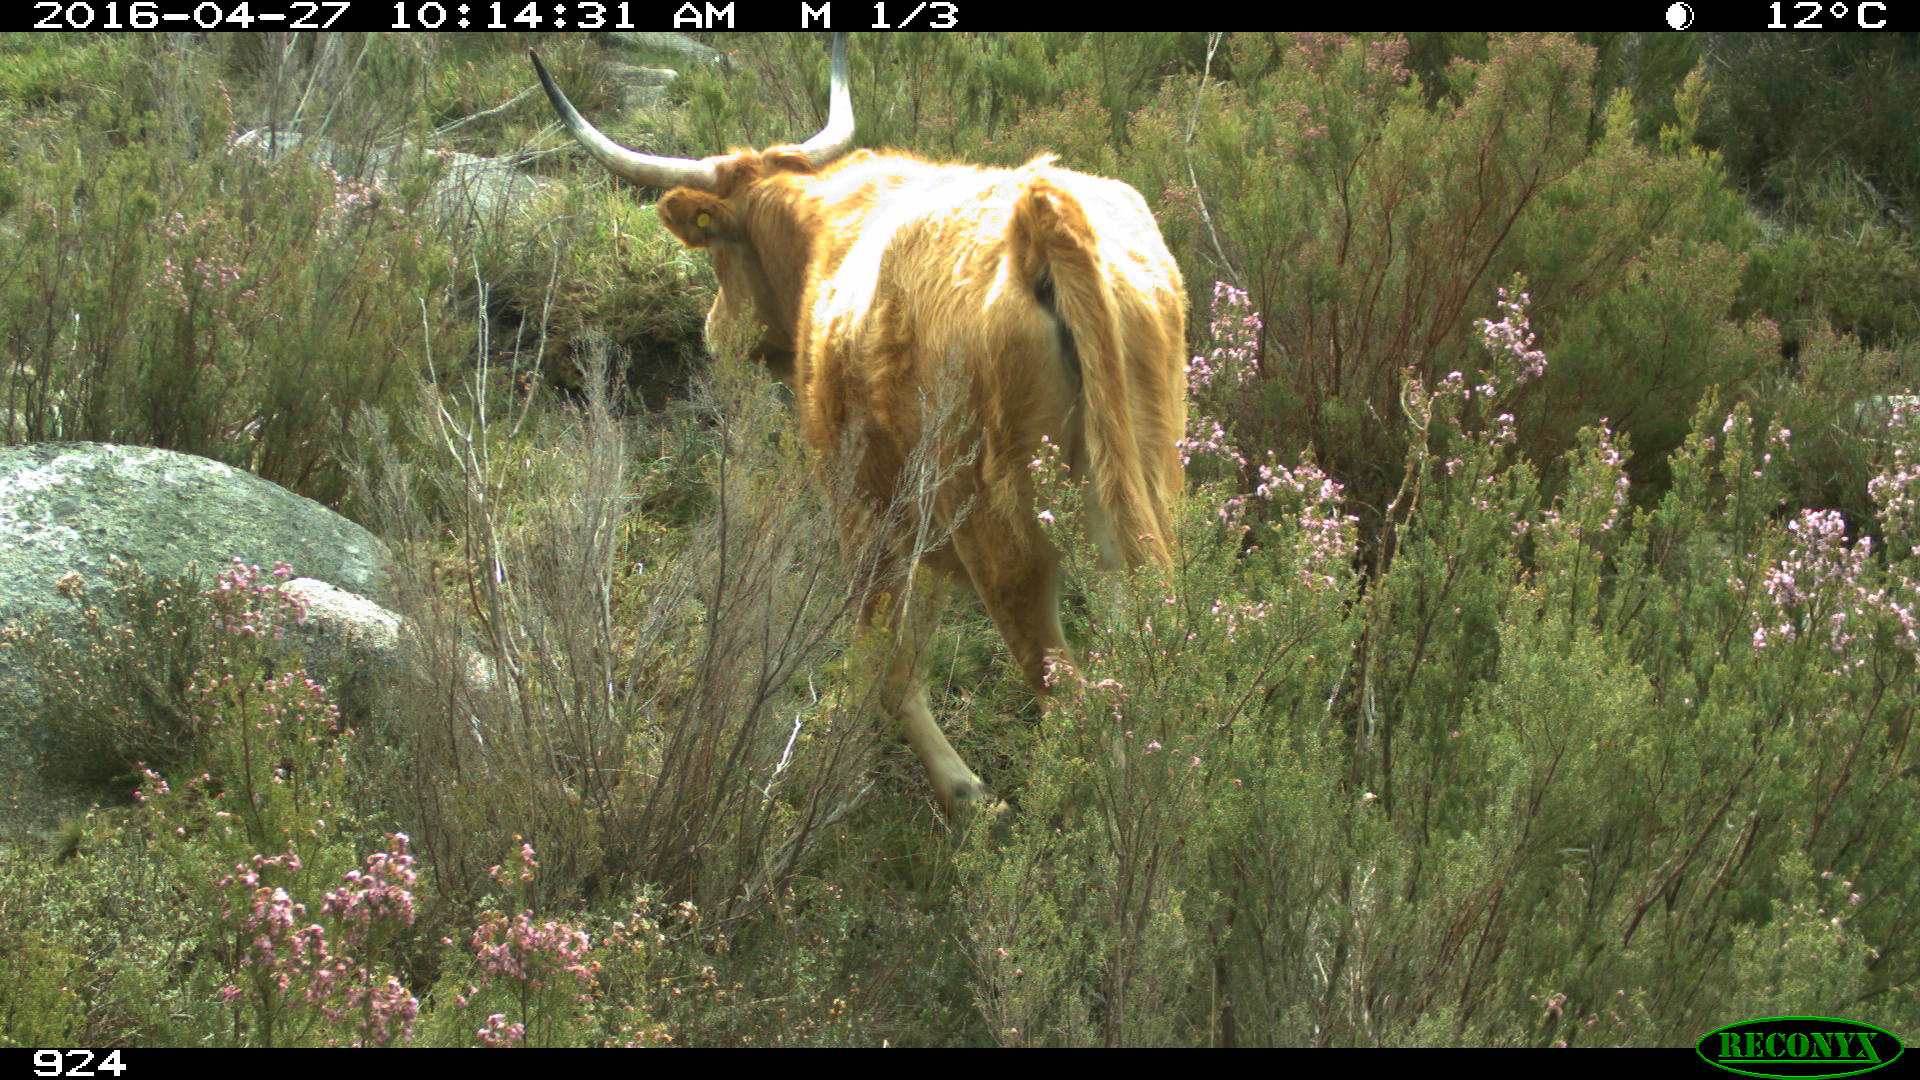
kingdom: Animalia
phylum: Chordata
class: Mammalia
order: Artiodactyla
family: Bovidae
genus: Bos
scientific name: Bos taurus
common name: Domesticated cattle
